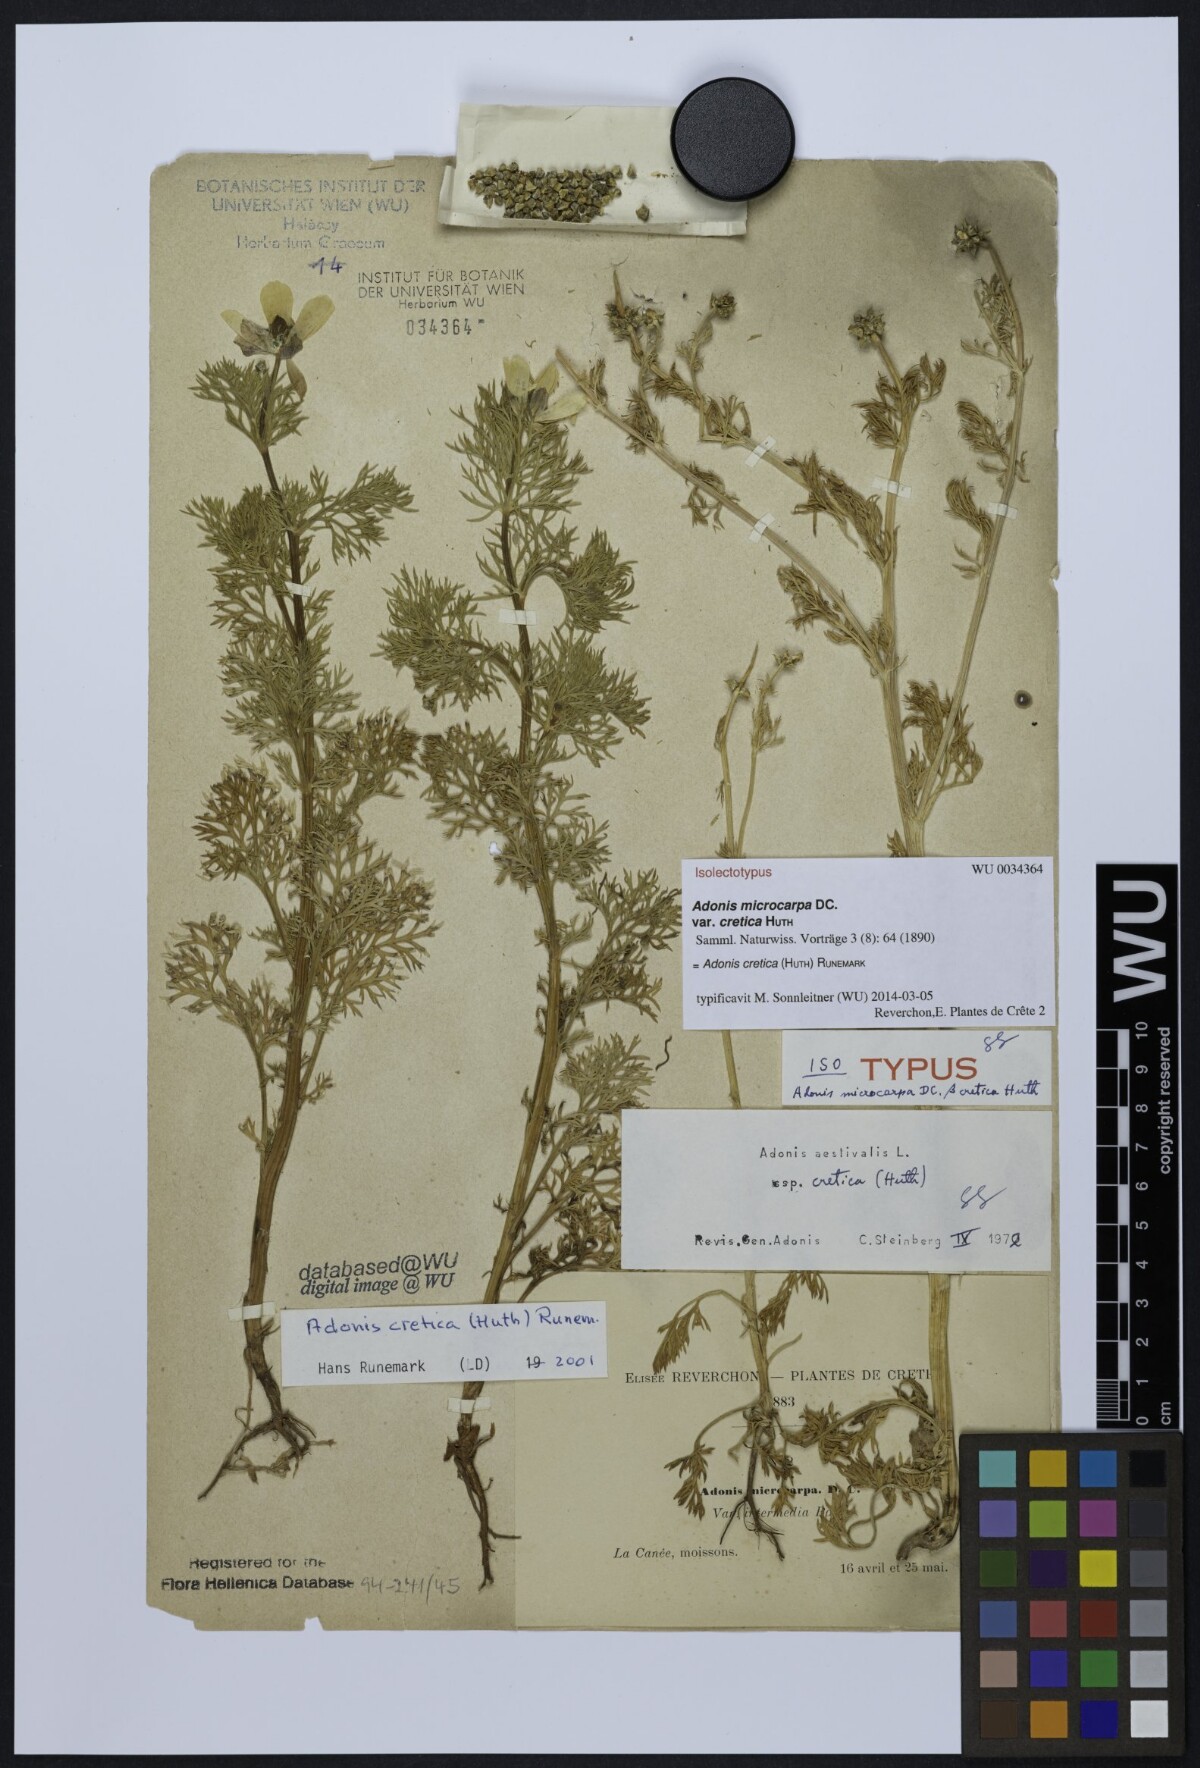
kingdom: Plantae
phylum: Tracheophyta
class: Magnoliopsida
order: Ranunculales
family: Ranunculaceae
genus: Adonis
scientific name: Adonis cretica
